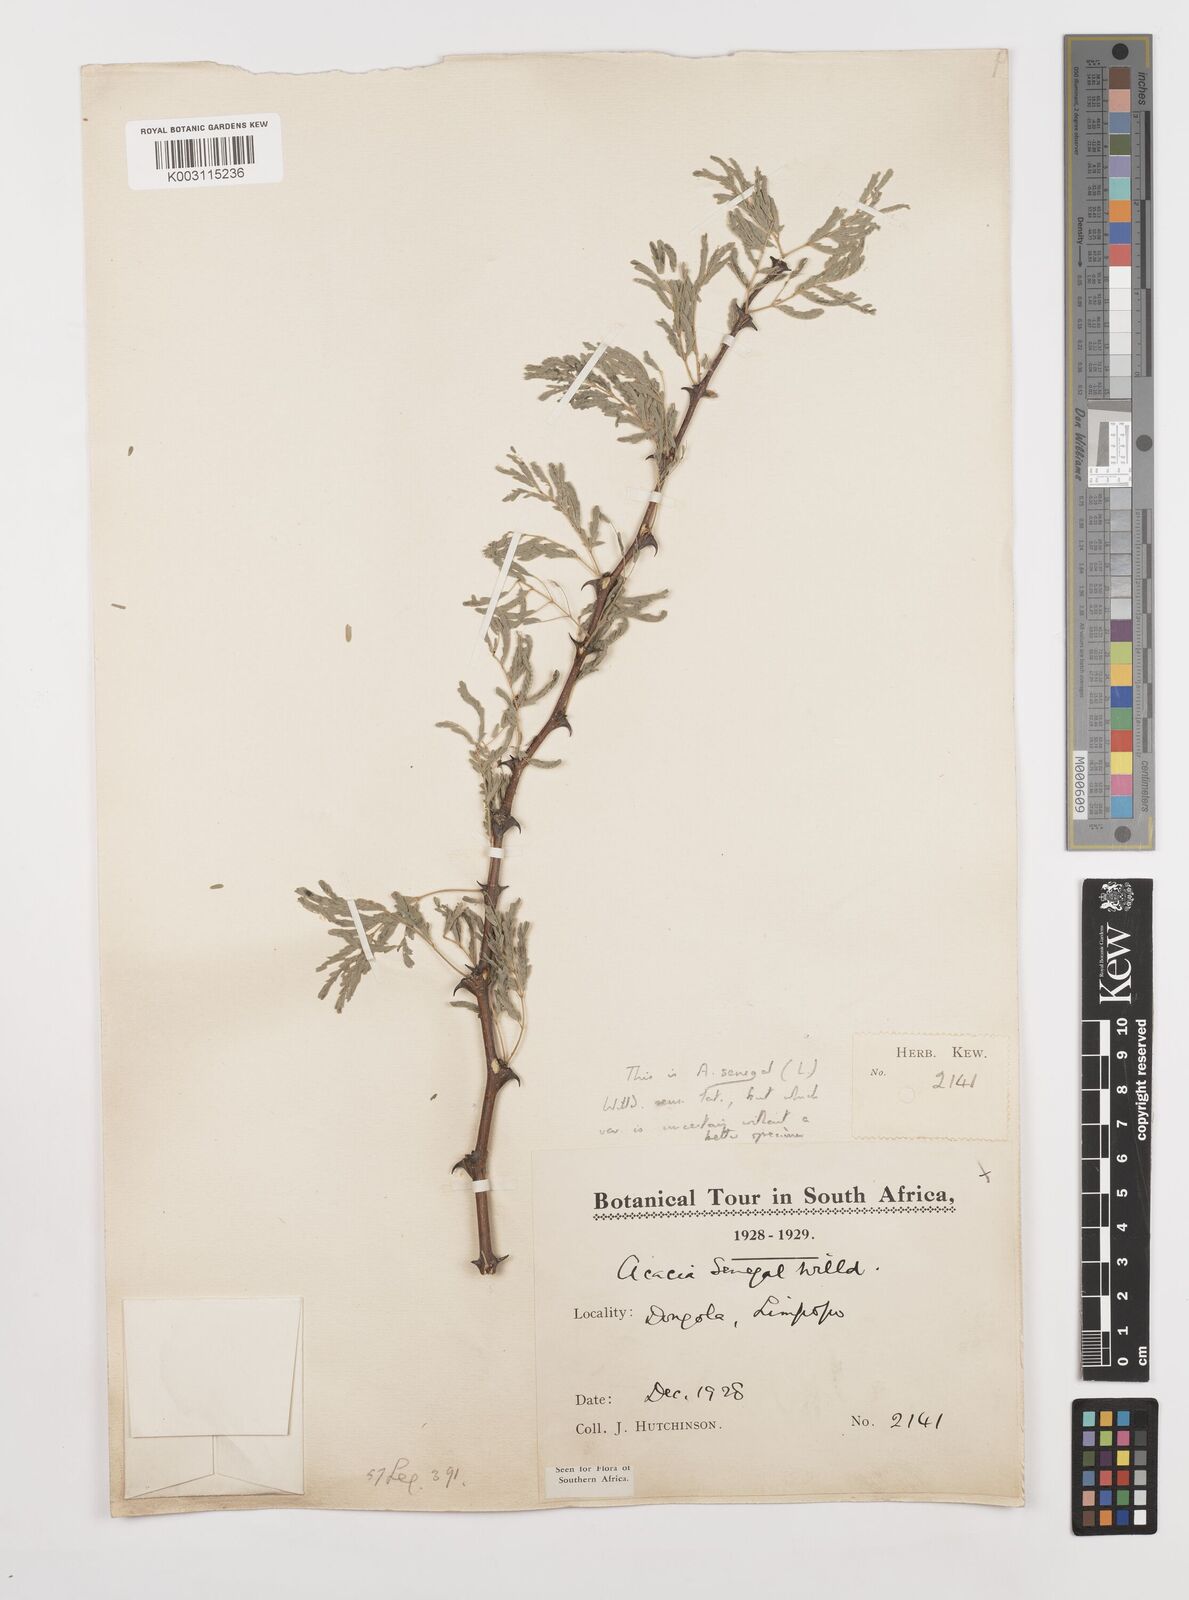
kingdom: Plantae
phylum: Tracheophyta
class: Magnoliopsida
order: Fabales
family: Fabaceae
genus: Senegalia
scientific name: Senegalia senegal
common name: Senegal-gum
